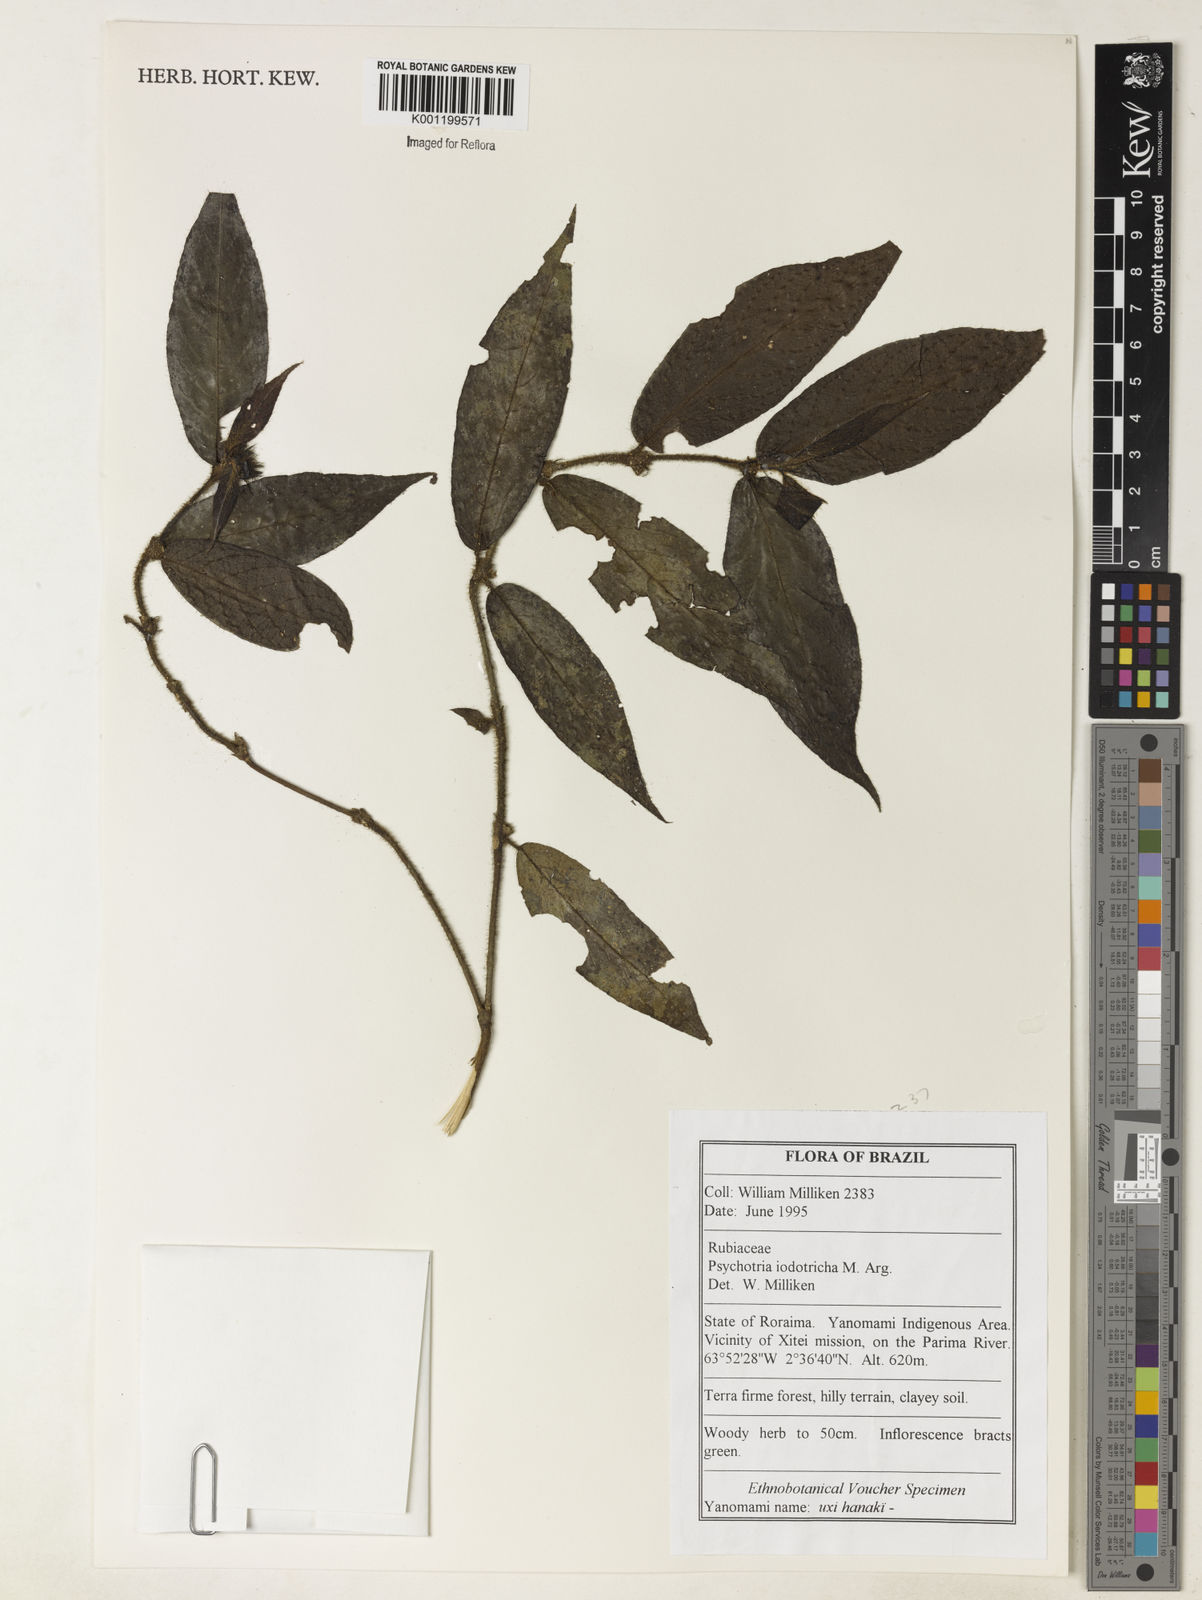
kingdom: Plantae
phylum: Tracheophyta
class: Magnoliopsida
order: Gentianales
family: Rubiaceae
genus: Psychotria
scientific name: Psychotria
